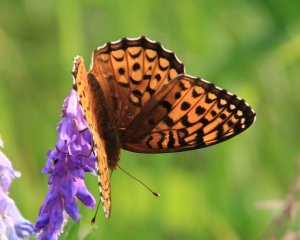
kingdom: Animalia
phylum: Arthropoda
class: Insecta
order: Lepidoptera
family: Nymphalidae
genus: Speyeria
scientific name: Speyeria atlantis
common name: Atlantis Fritillary
